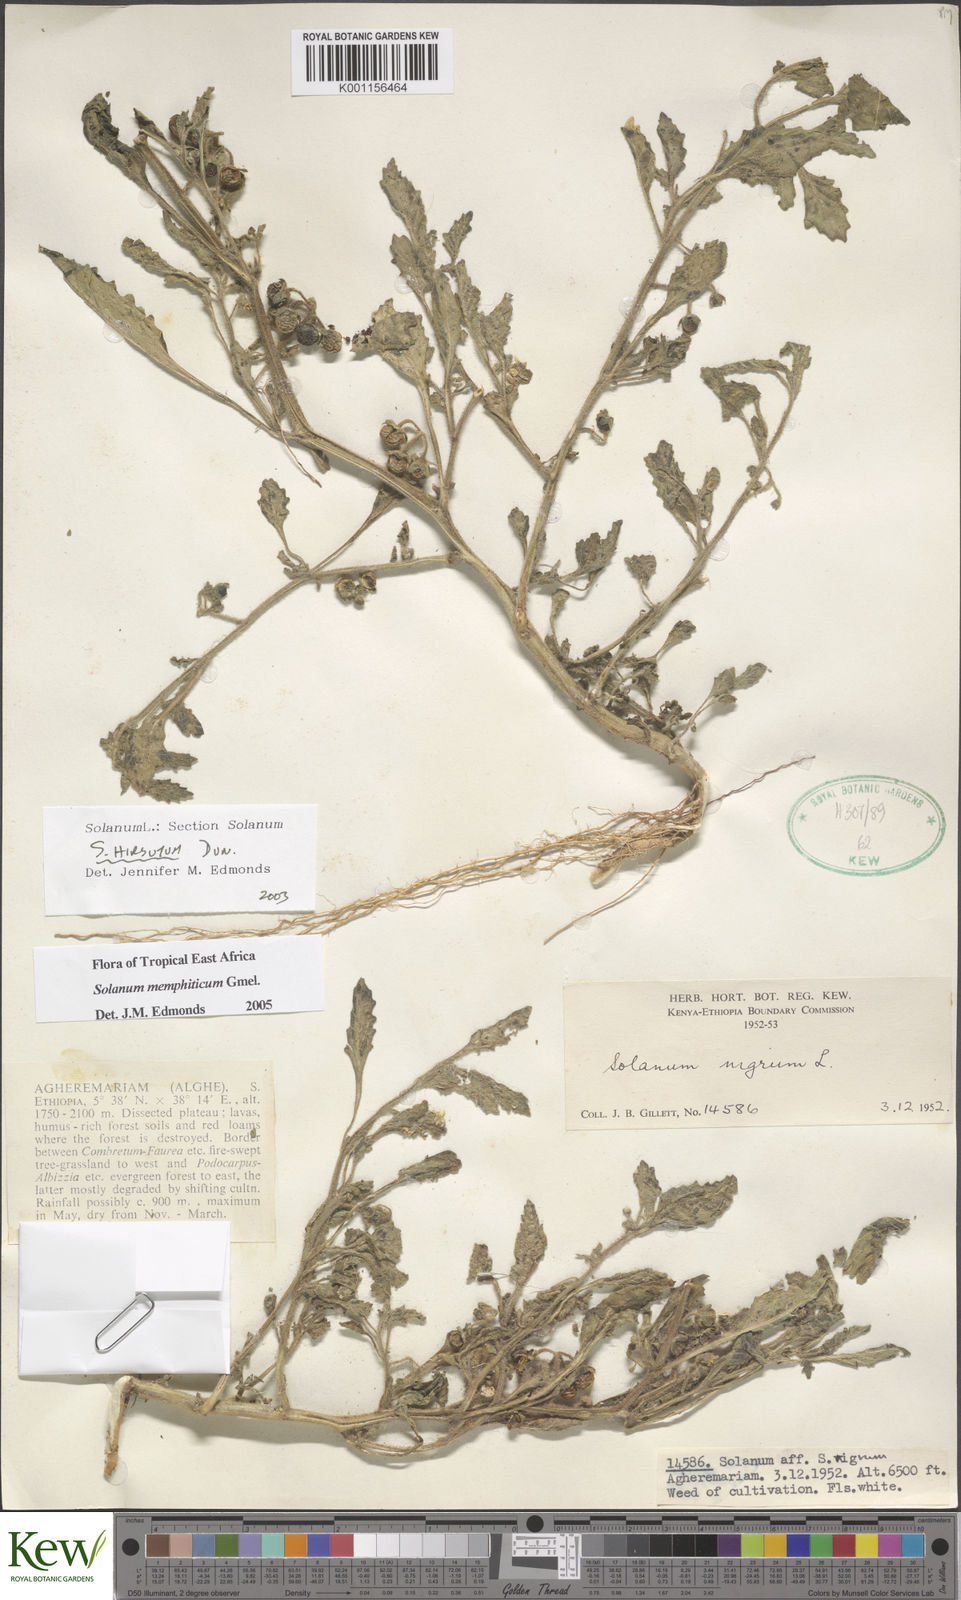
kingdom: Plantae
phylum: Tracheophyta
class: Magnoliopsida
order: Solanales
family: Solanaceae
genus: Solanum
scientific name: Solanum memphiticum
